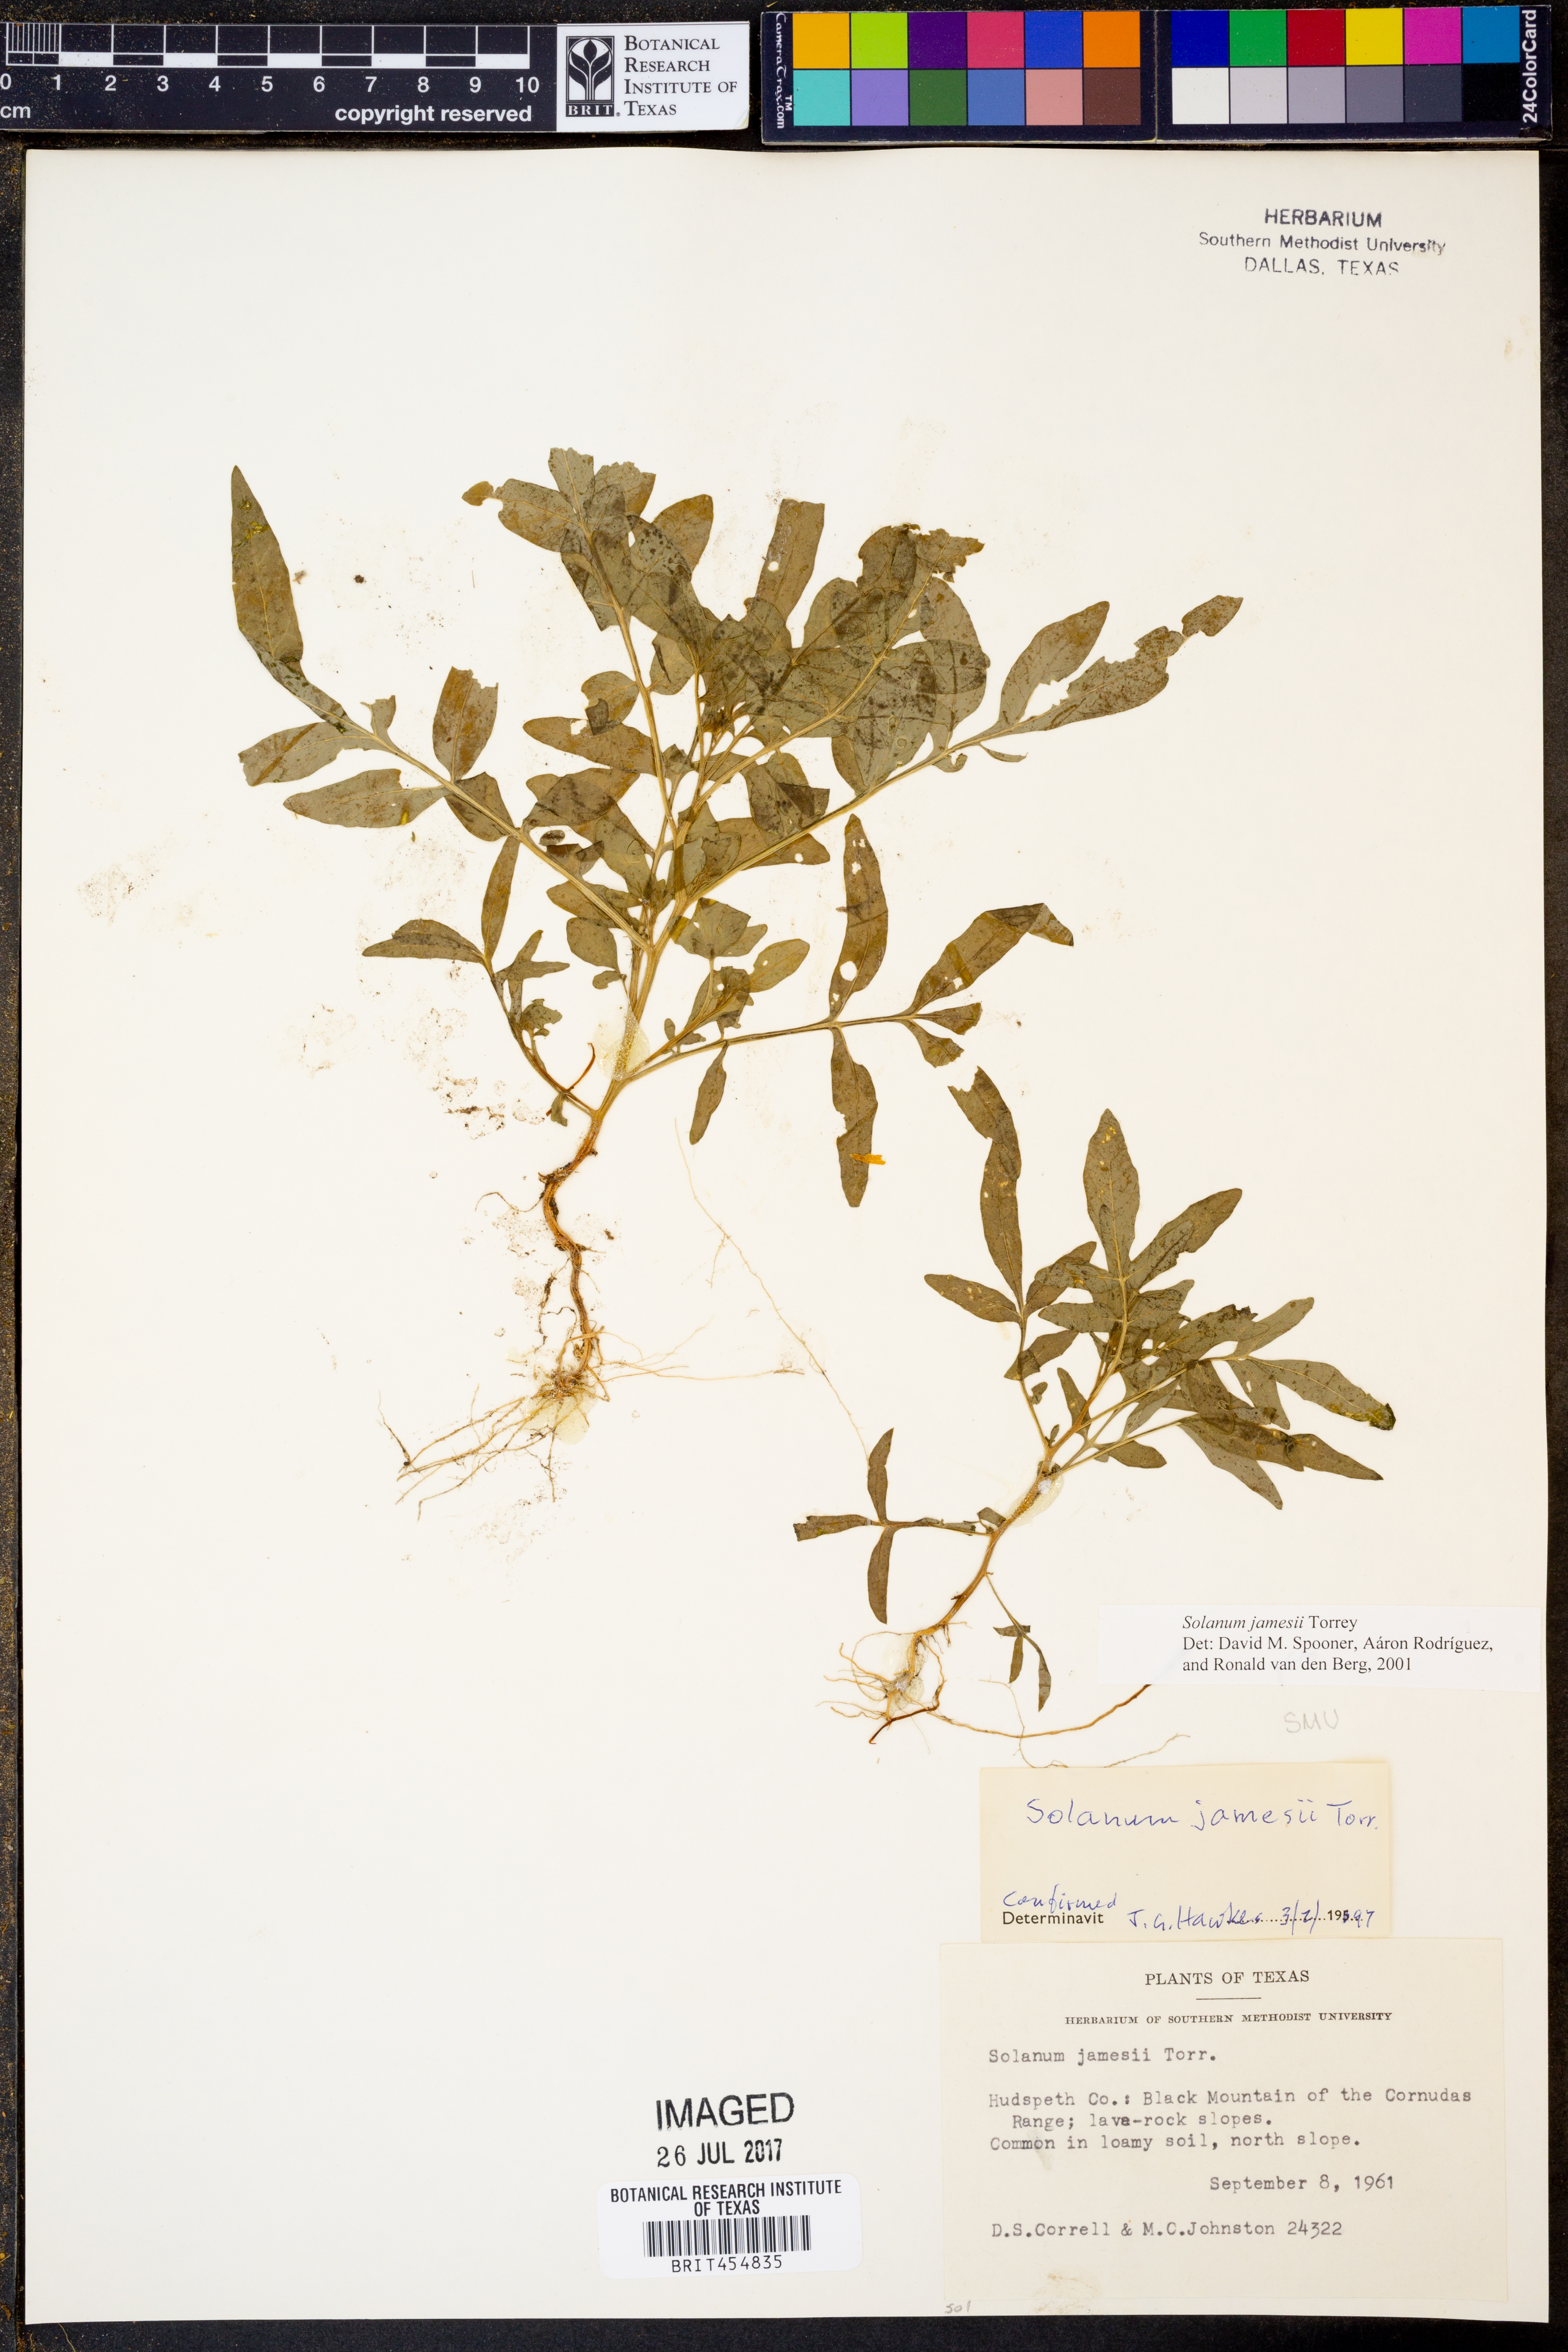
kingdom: Plantae
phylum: Tracheophyta
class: Magnoliopsida
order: Solanales
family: Solanaceae
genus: Solanum
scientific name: Solanum jamesii
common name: Wild potato
